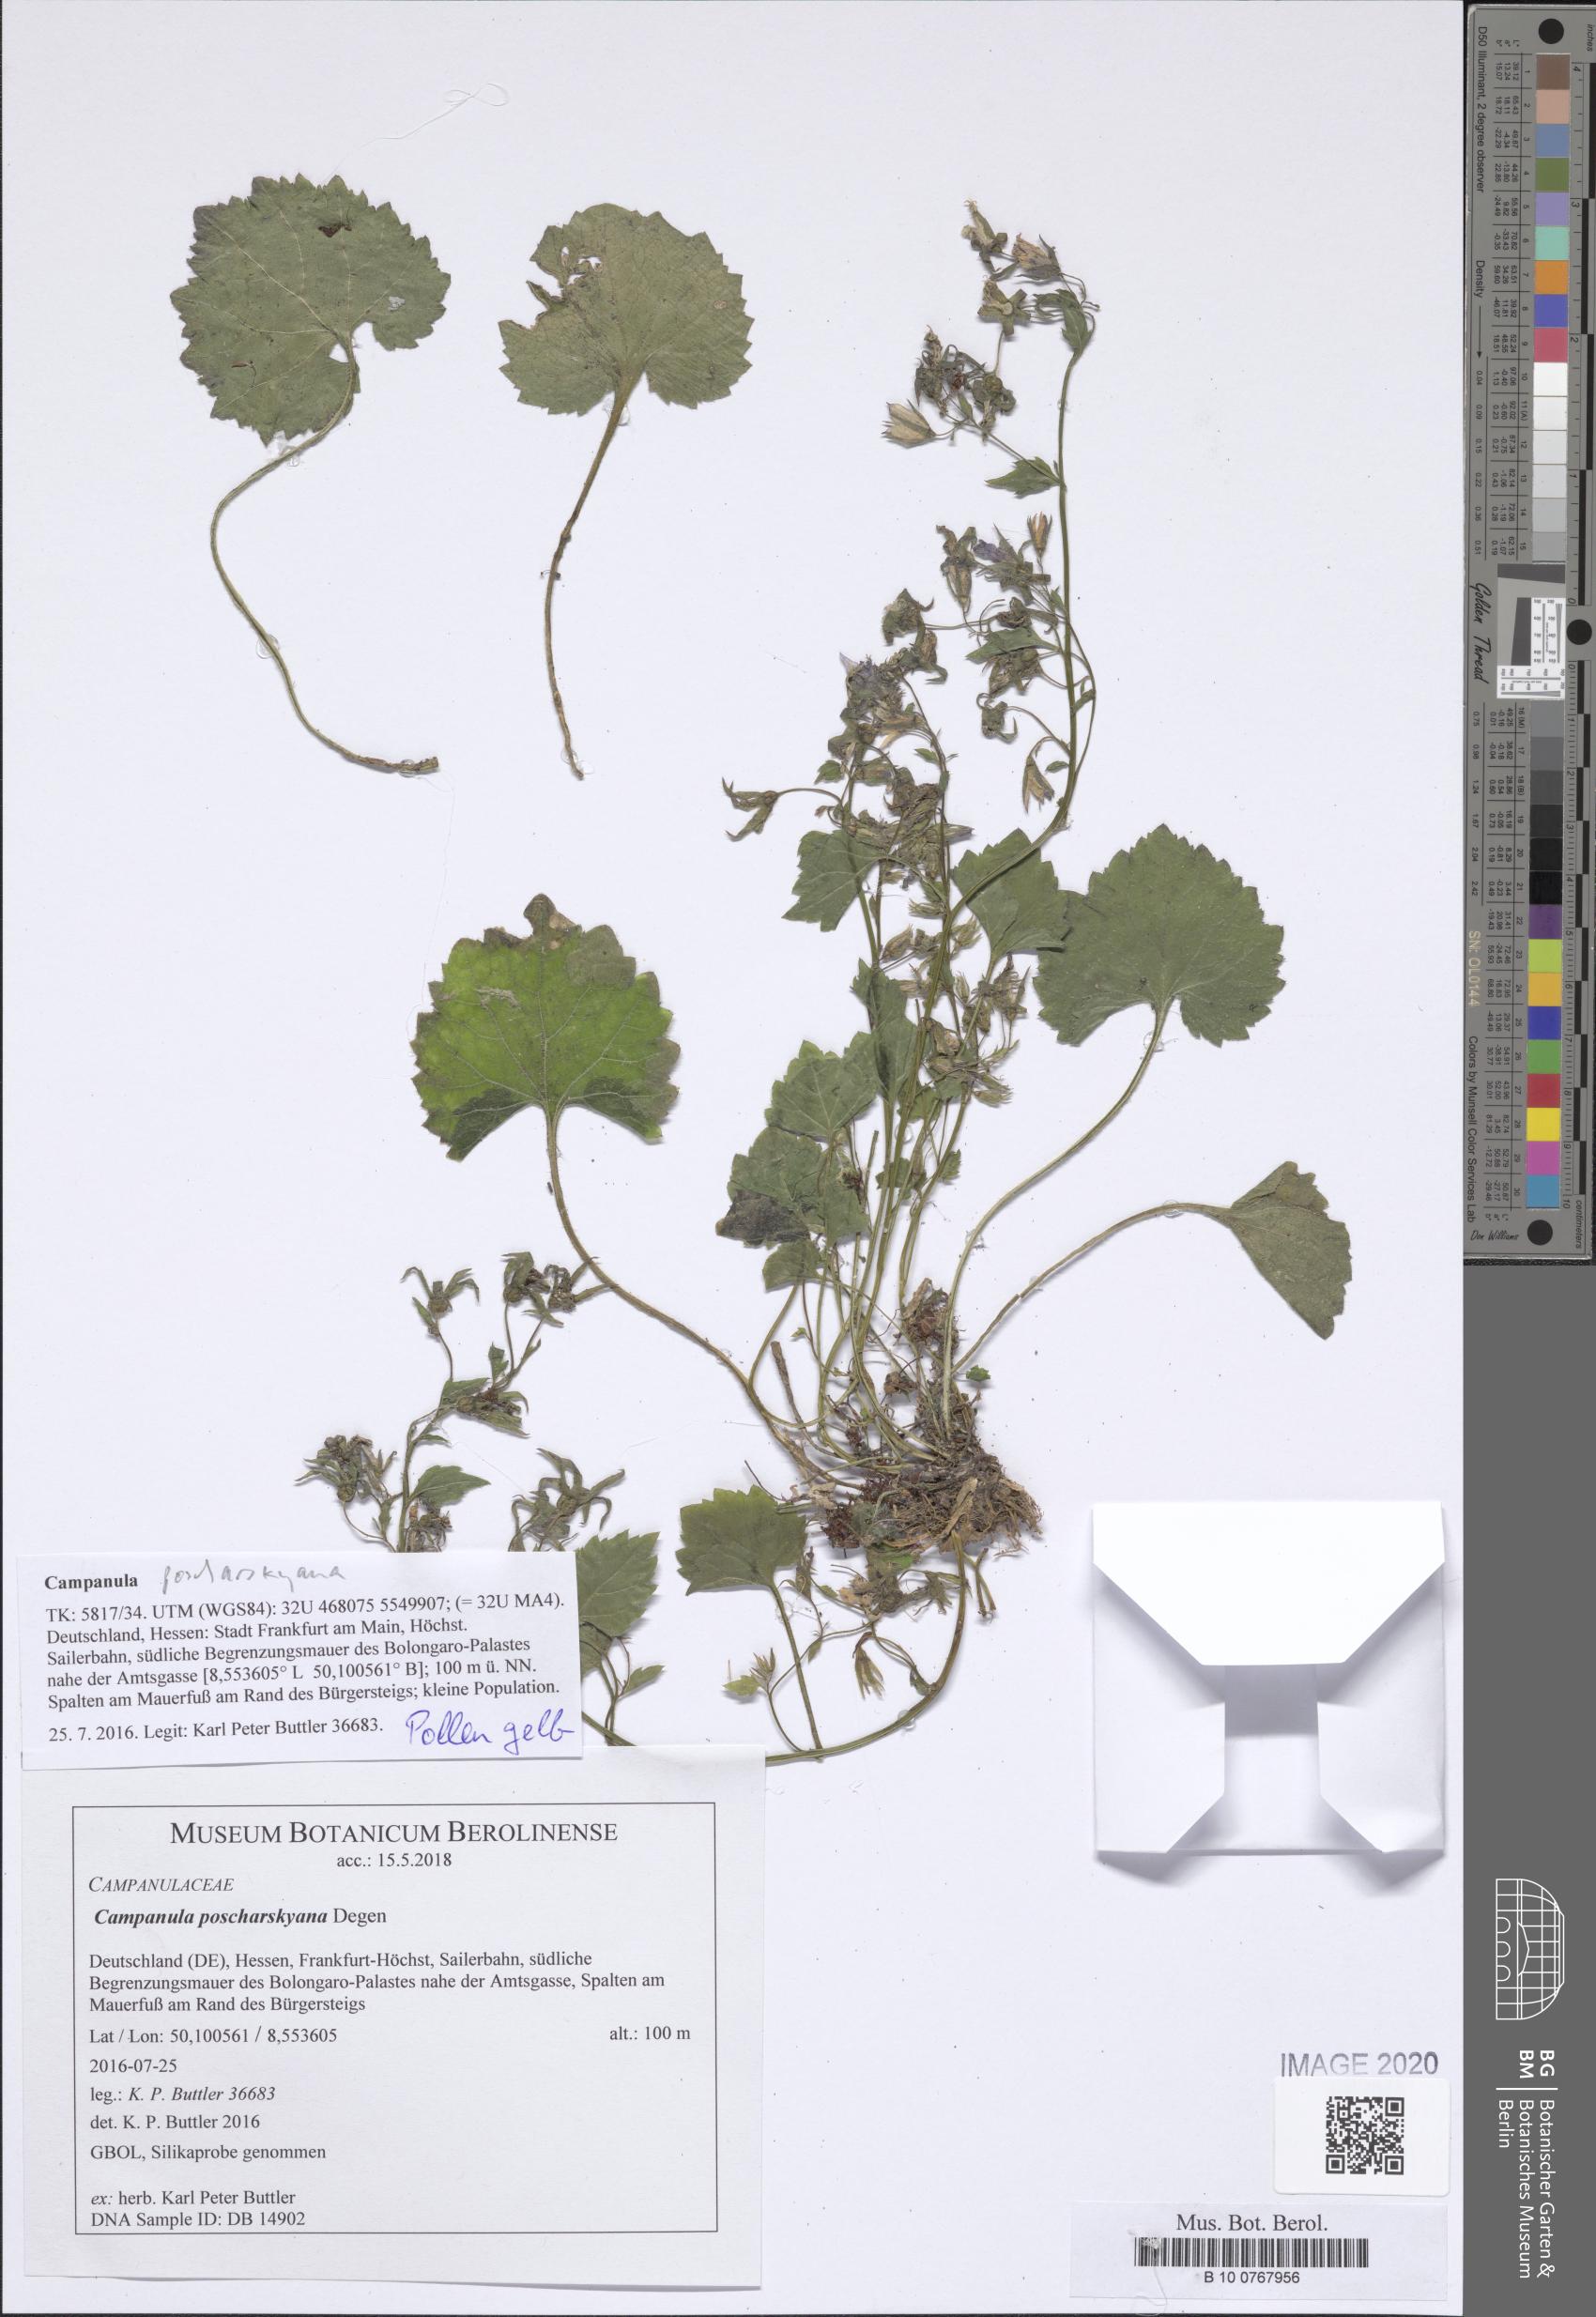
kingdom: Plantae
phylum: Tracheophyta
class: Magnoliopsida
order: Asterales
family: Campanulaceae
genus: Campanula
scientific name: Campanula poscharskyana
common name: Trailing bellflower
